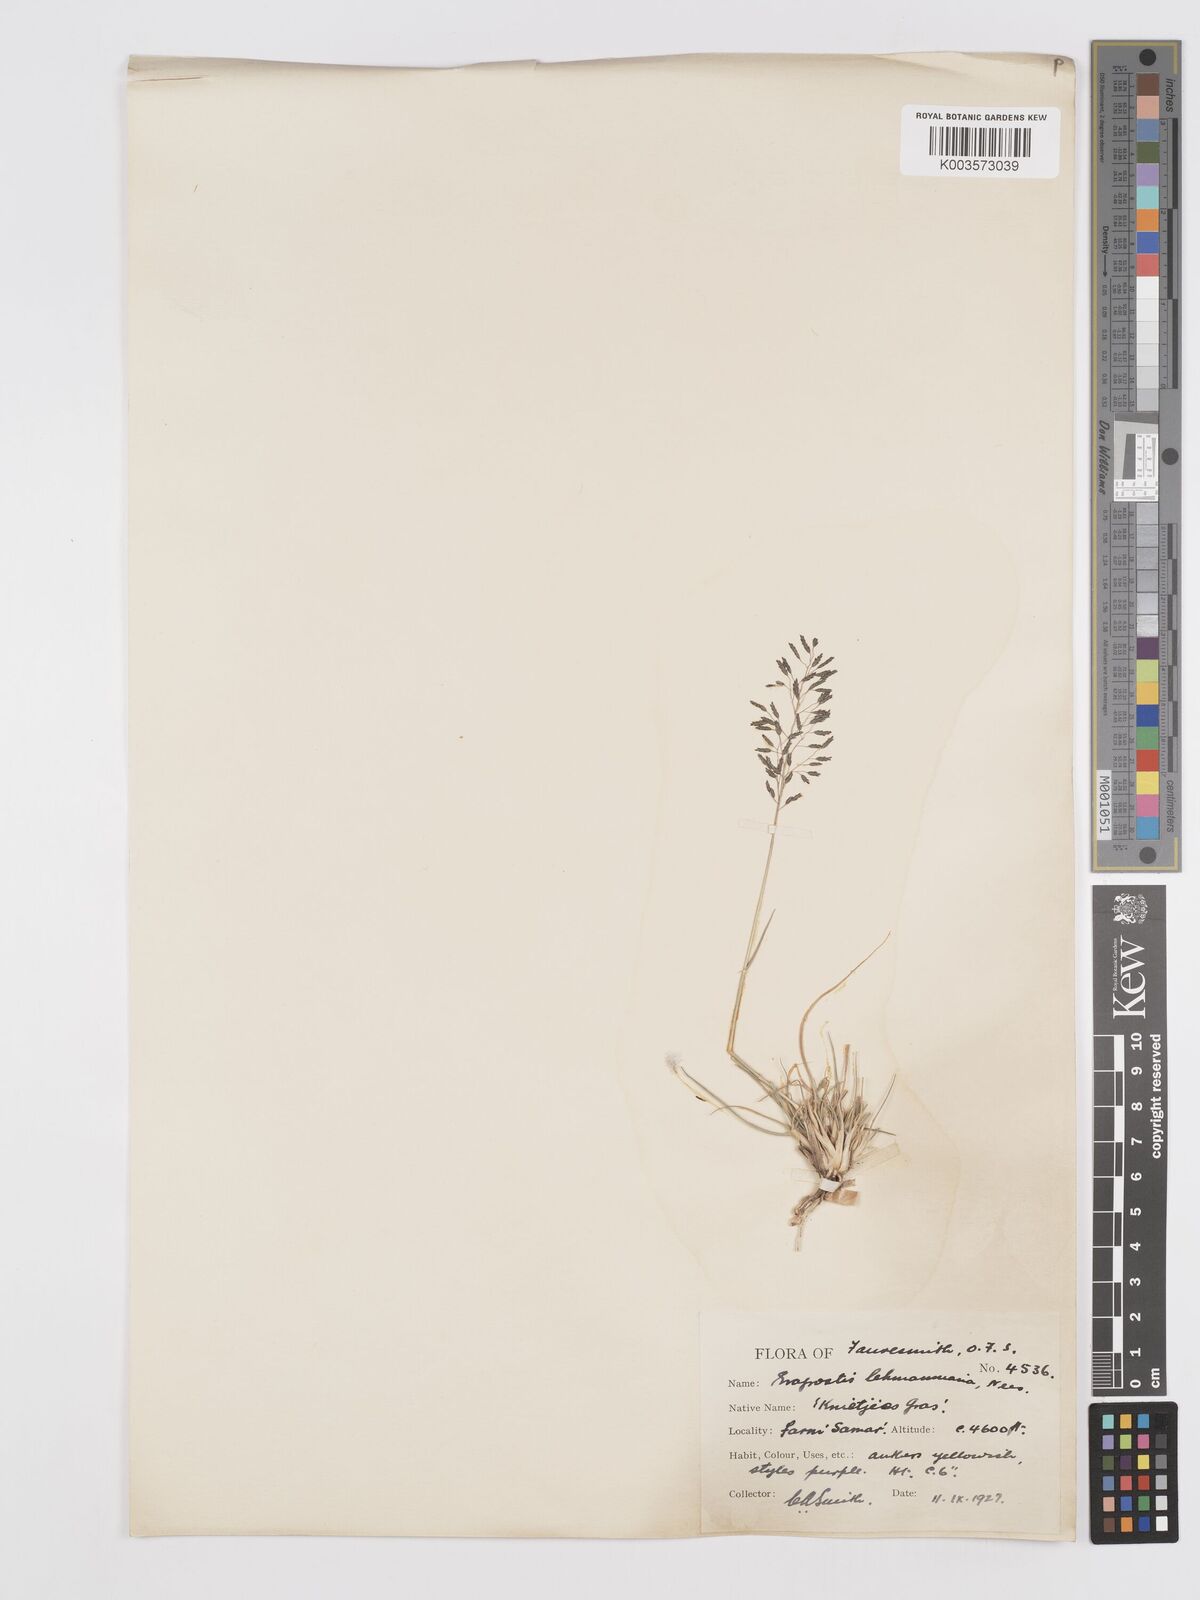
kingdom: Plantae
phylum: Tracheophyta
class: Liliopsida
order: Poales
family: Poaceae
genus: Eragrostis
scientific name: Eragrostis curvula
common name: African love-grass
